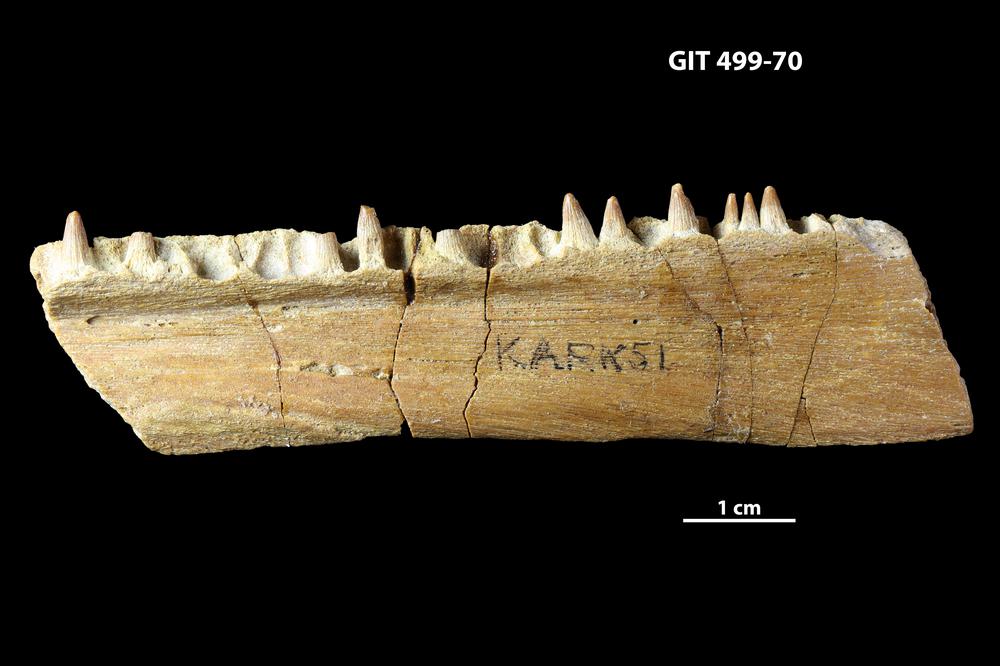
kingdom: Animalia
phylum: Chordata
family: Holoptychiidae
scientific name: Holoptychiidae
